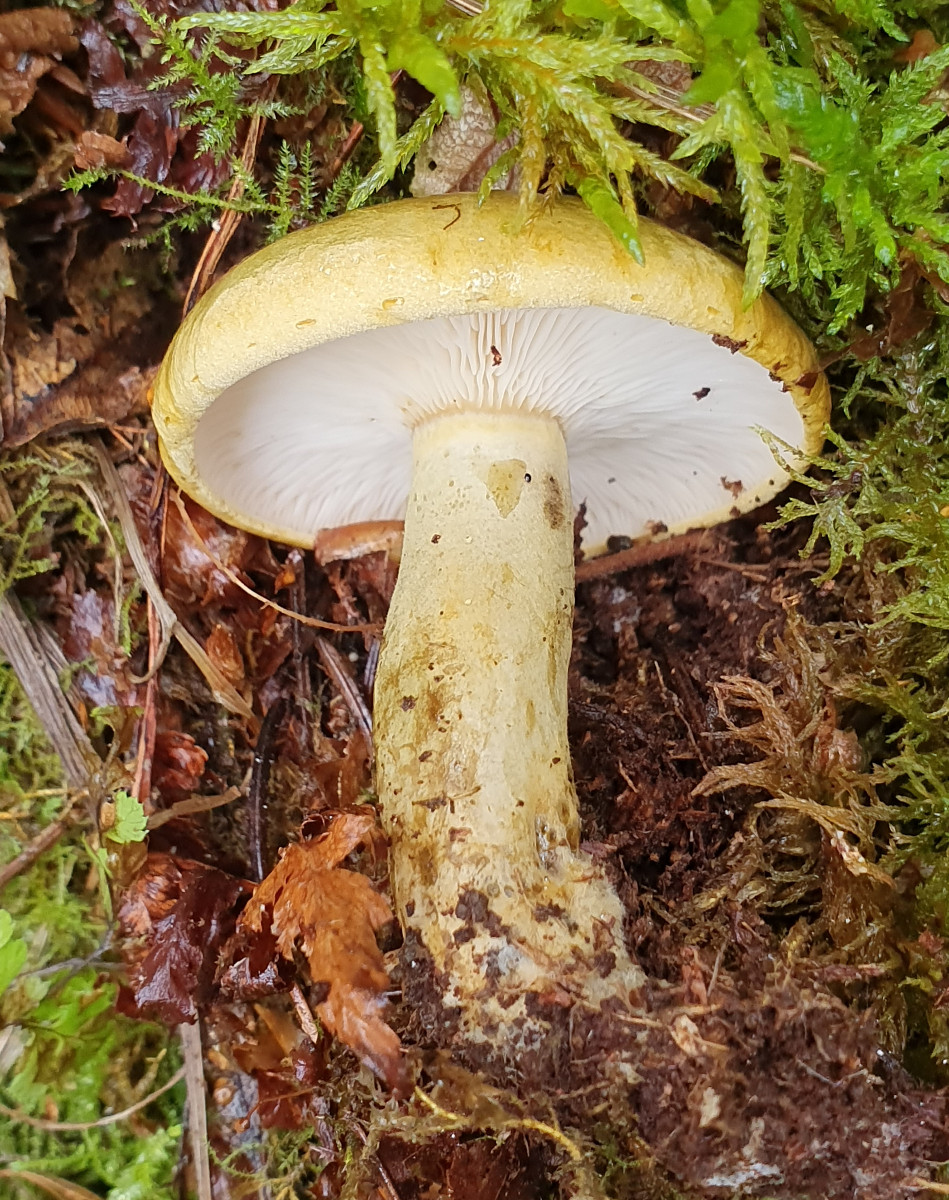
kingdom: Fungi
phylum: Basidiomycota
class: Agaricomycetes
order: Russulales
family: Russulaceae
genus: Lactarius
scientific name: Lactarius necator
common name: manddraber-mælkehat
